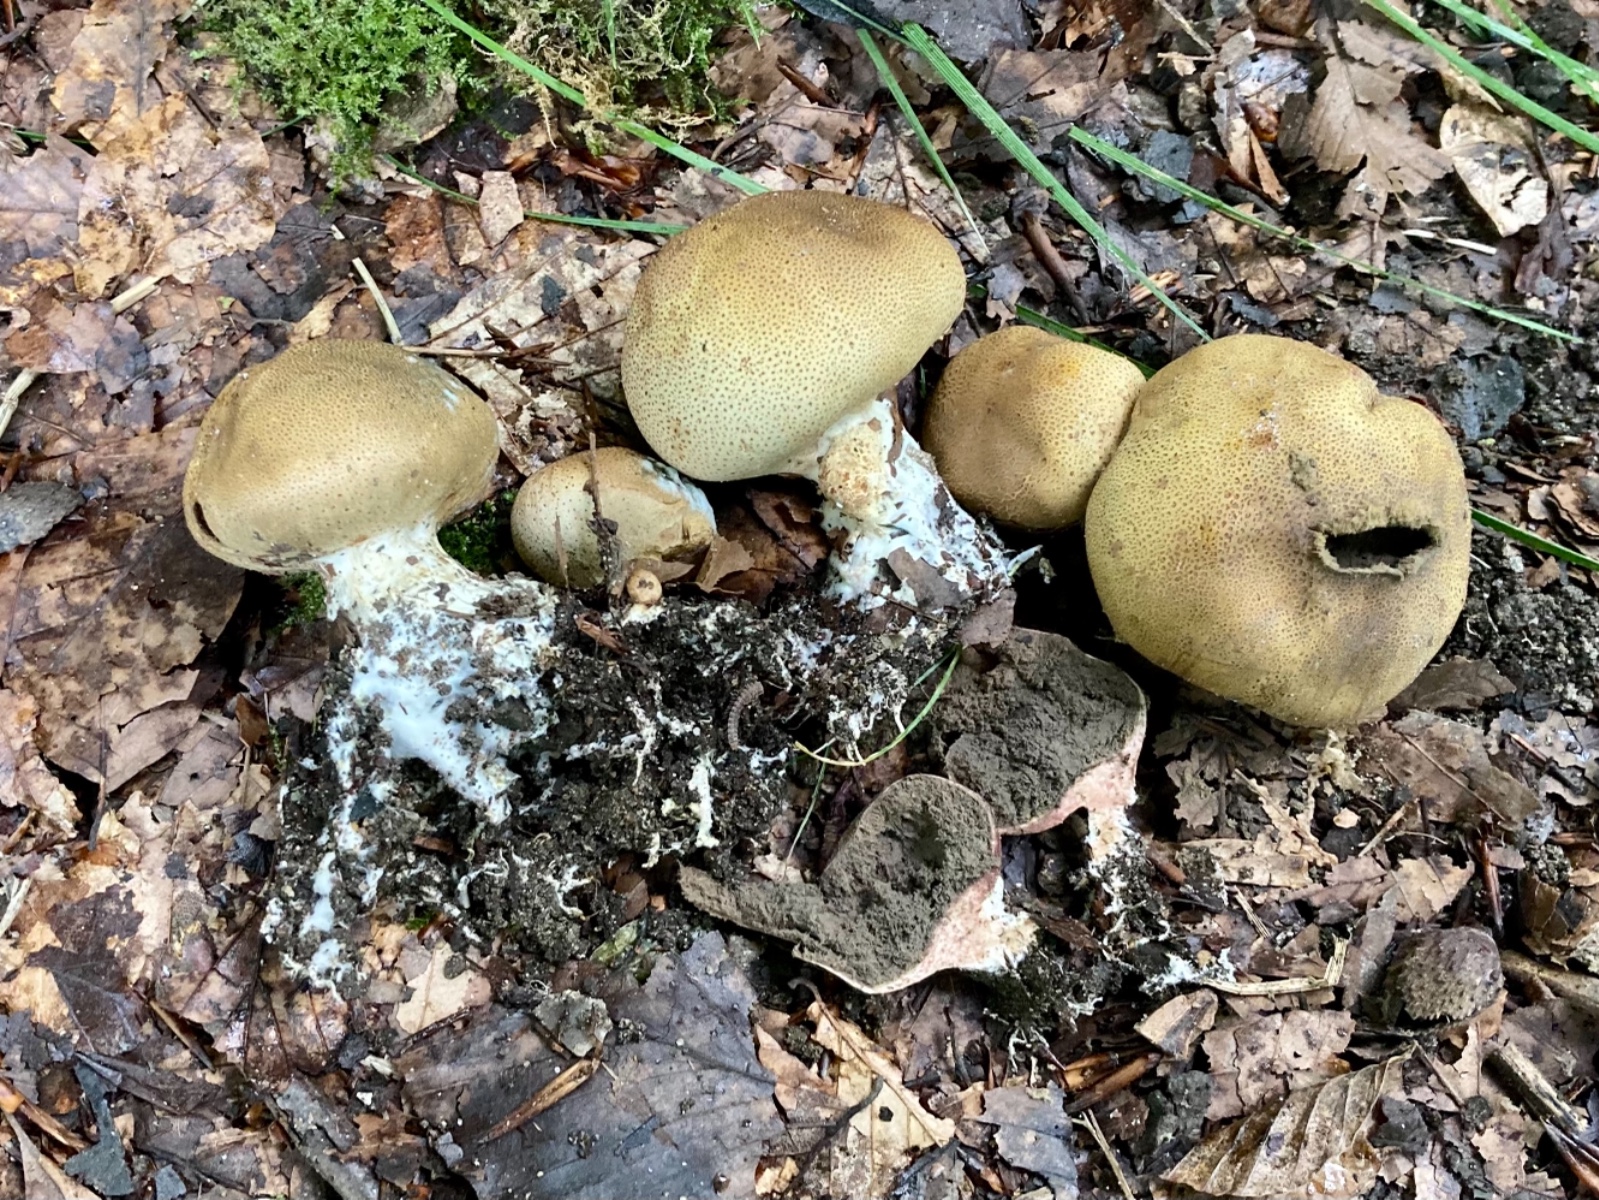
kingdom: Fungi
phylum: Basidiomycota
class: Agaricomycetes
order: Boletales
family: Sclerodermataceae
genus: Scleroderma
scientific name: Scleroderma verrucosum
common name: stilket bruskbold
